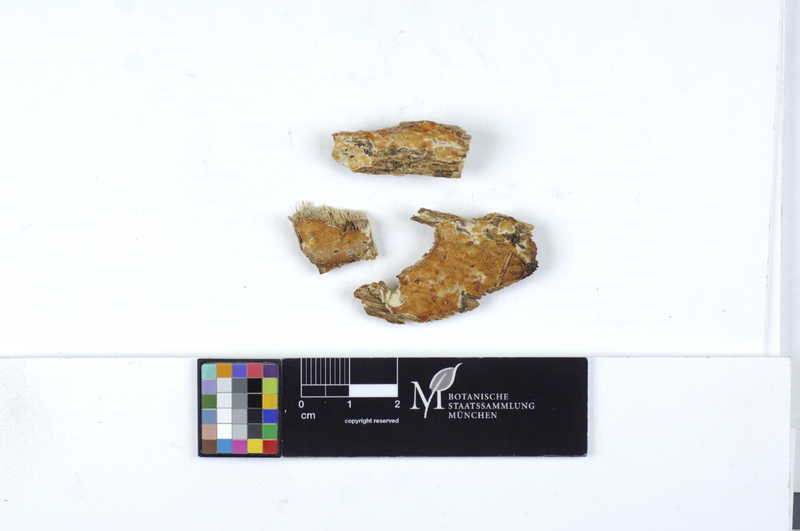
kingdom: Fungi
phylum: Basidiomycota
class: Agaricomycetes
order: Polyporales
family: Irpicaceae
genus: Crystallicutis
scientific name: Crystallicutis serpens
